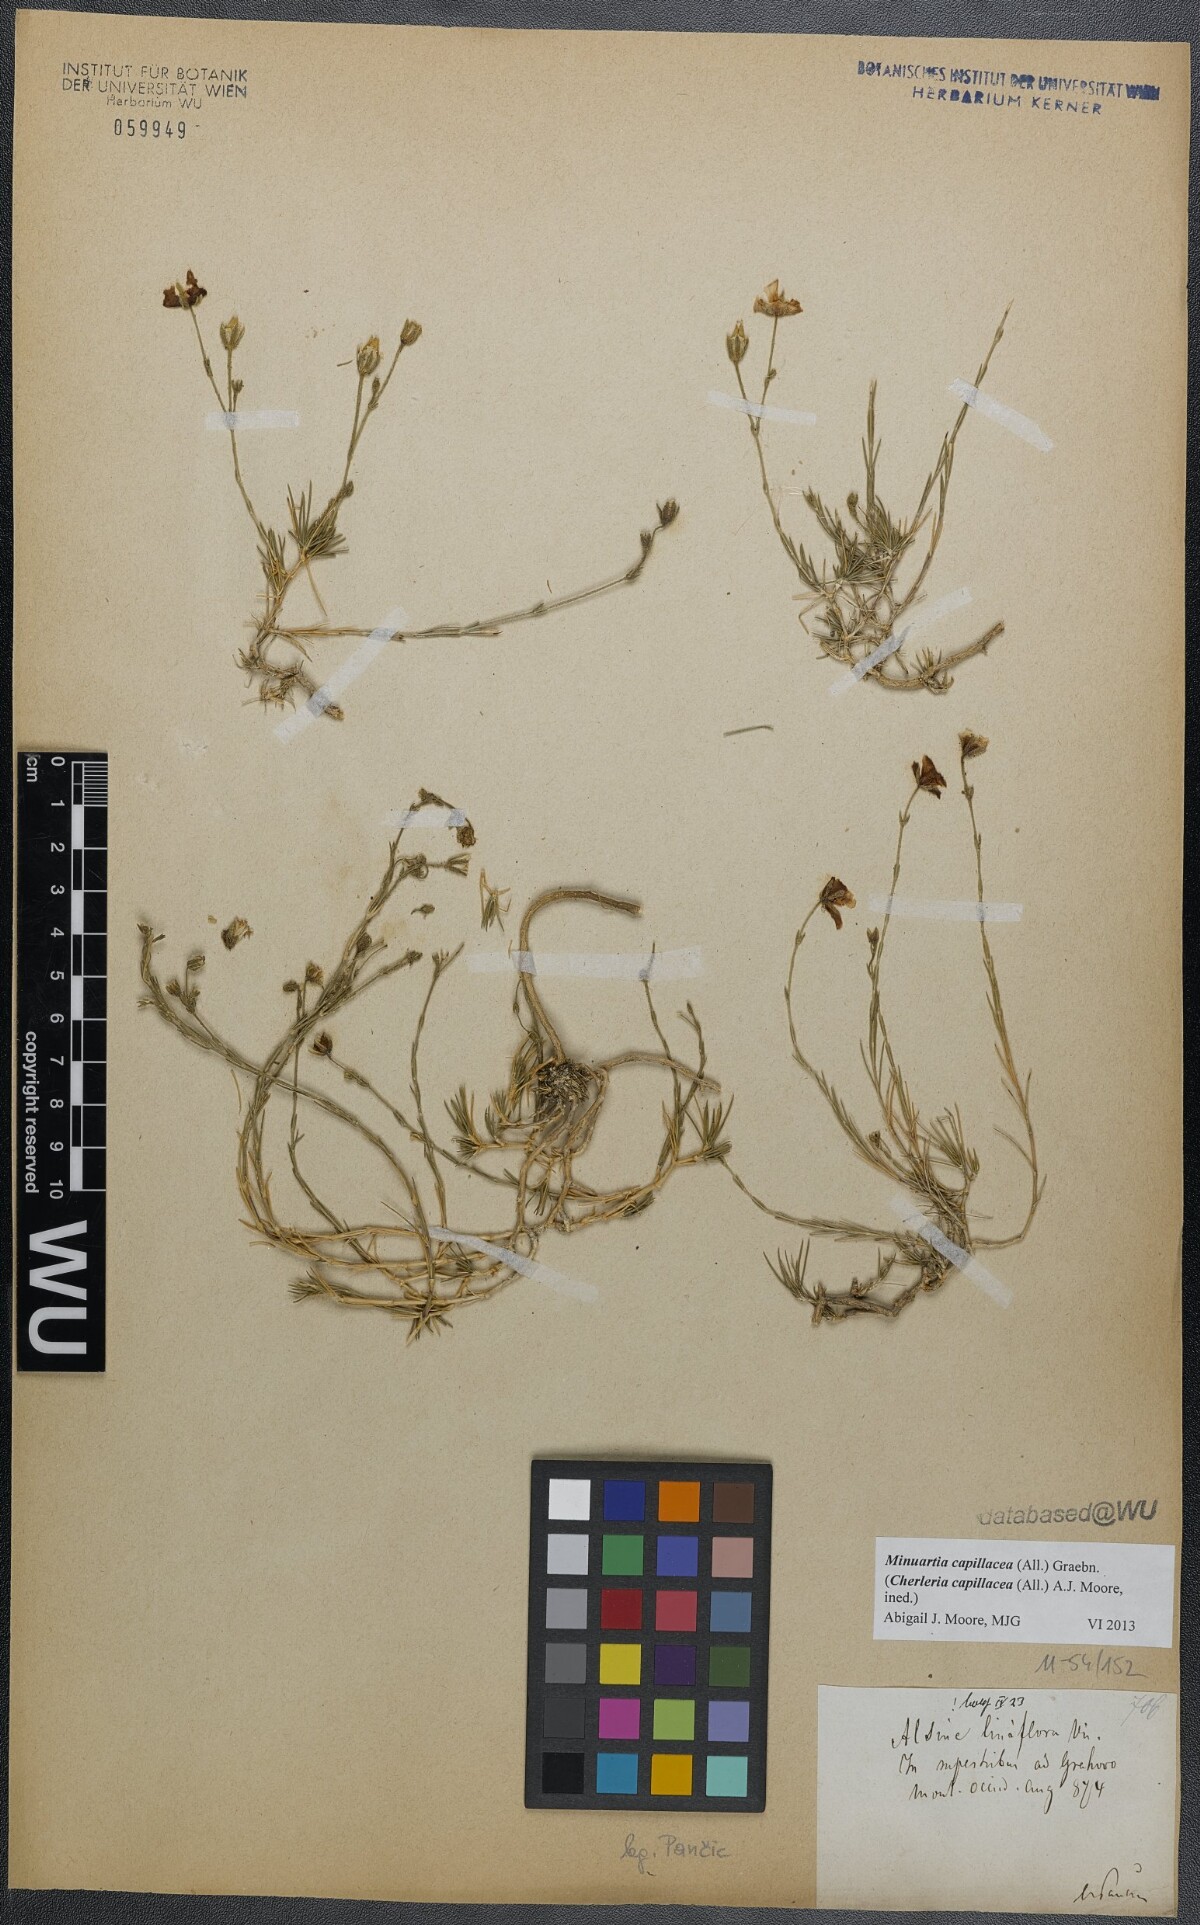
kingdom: Plantae
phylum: Tracheophyta
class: Magnoliopsida
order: Caryophyllales
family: Caryophyllaceae
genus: Cherleria
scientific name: Cherleria capillacea
